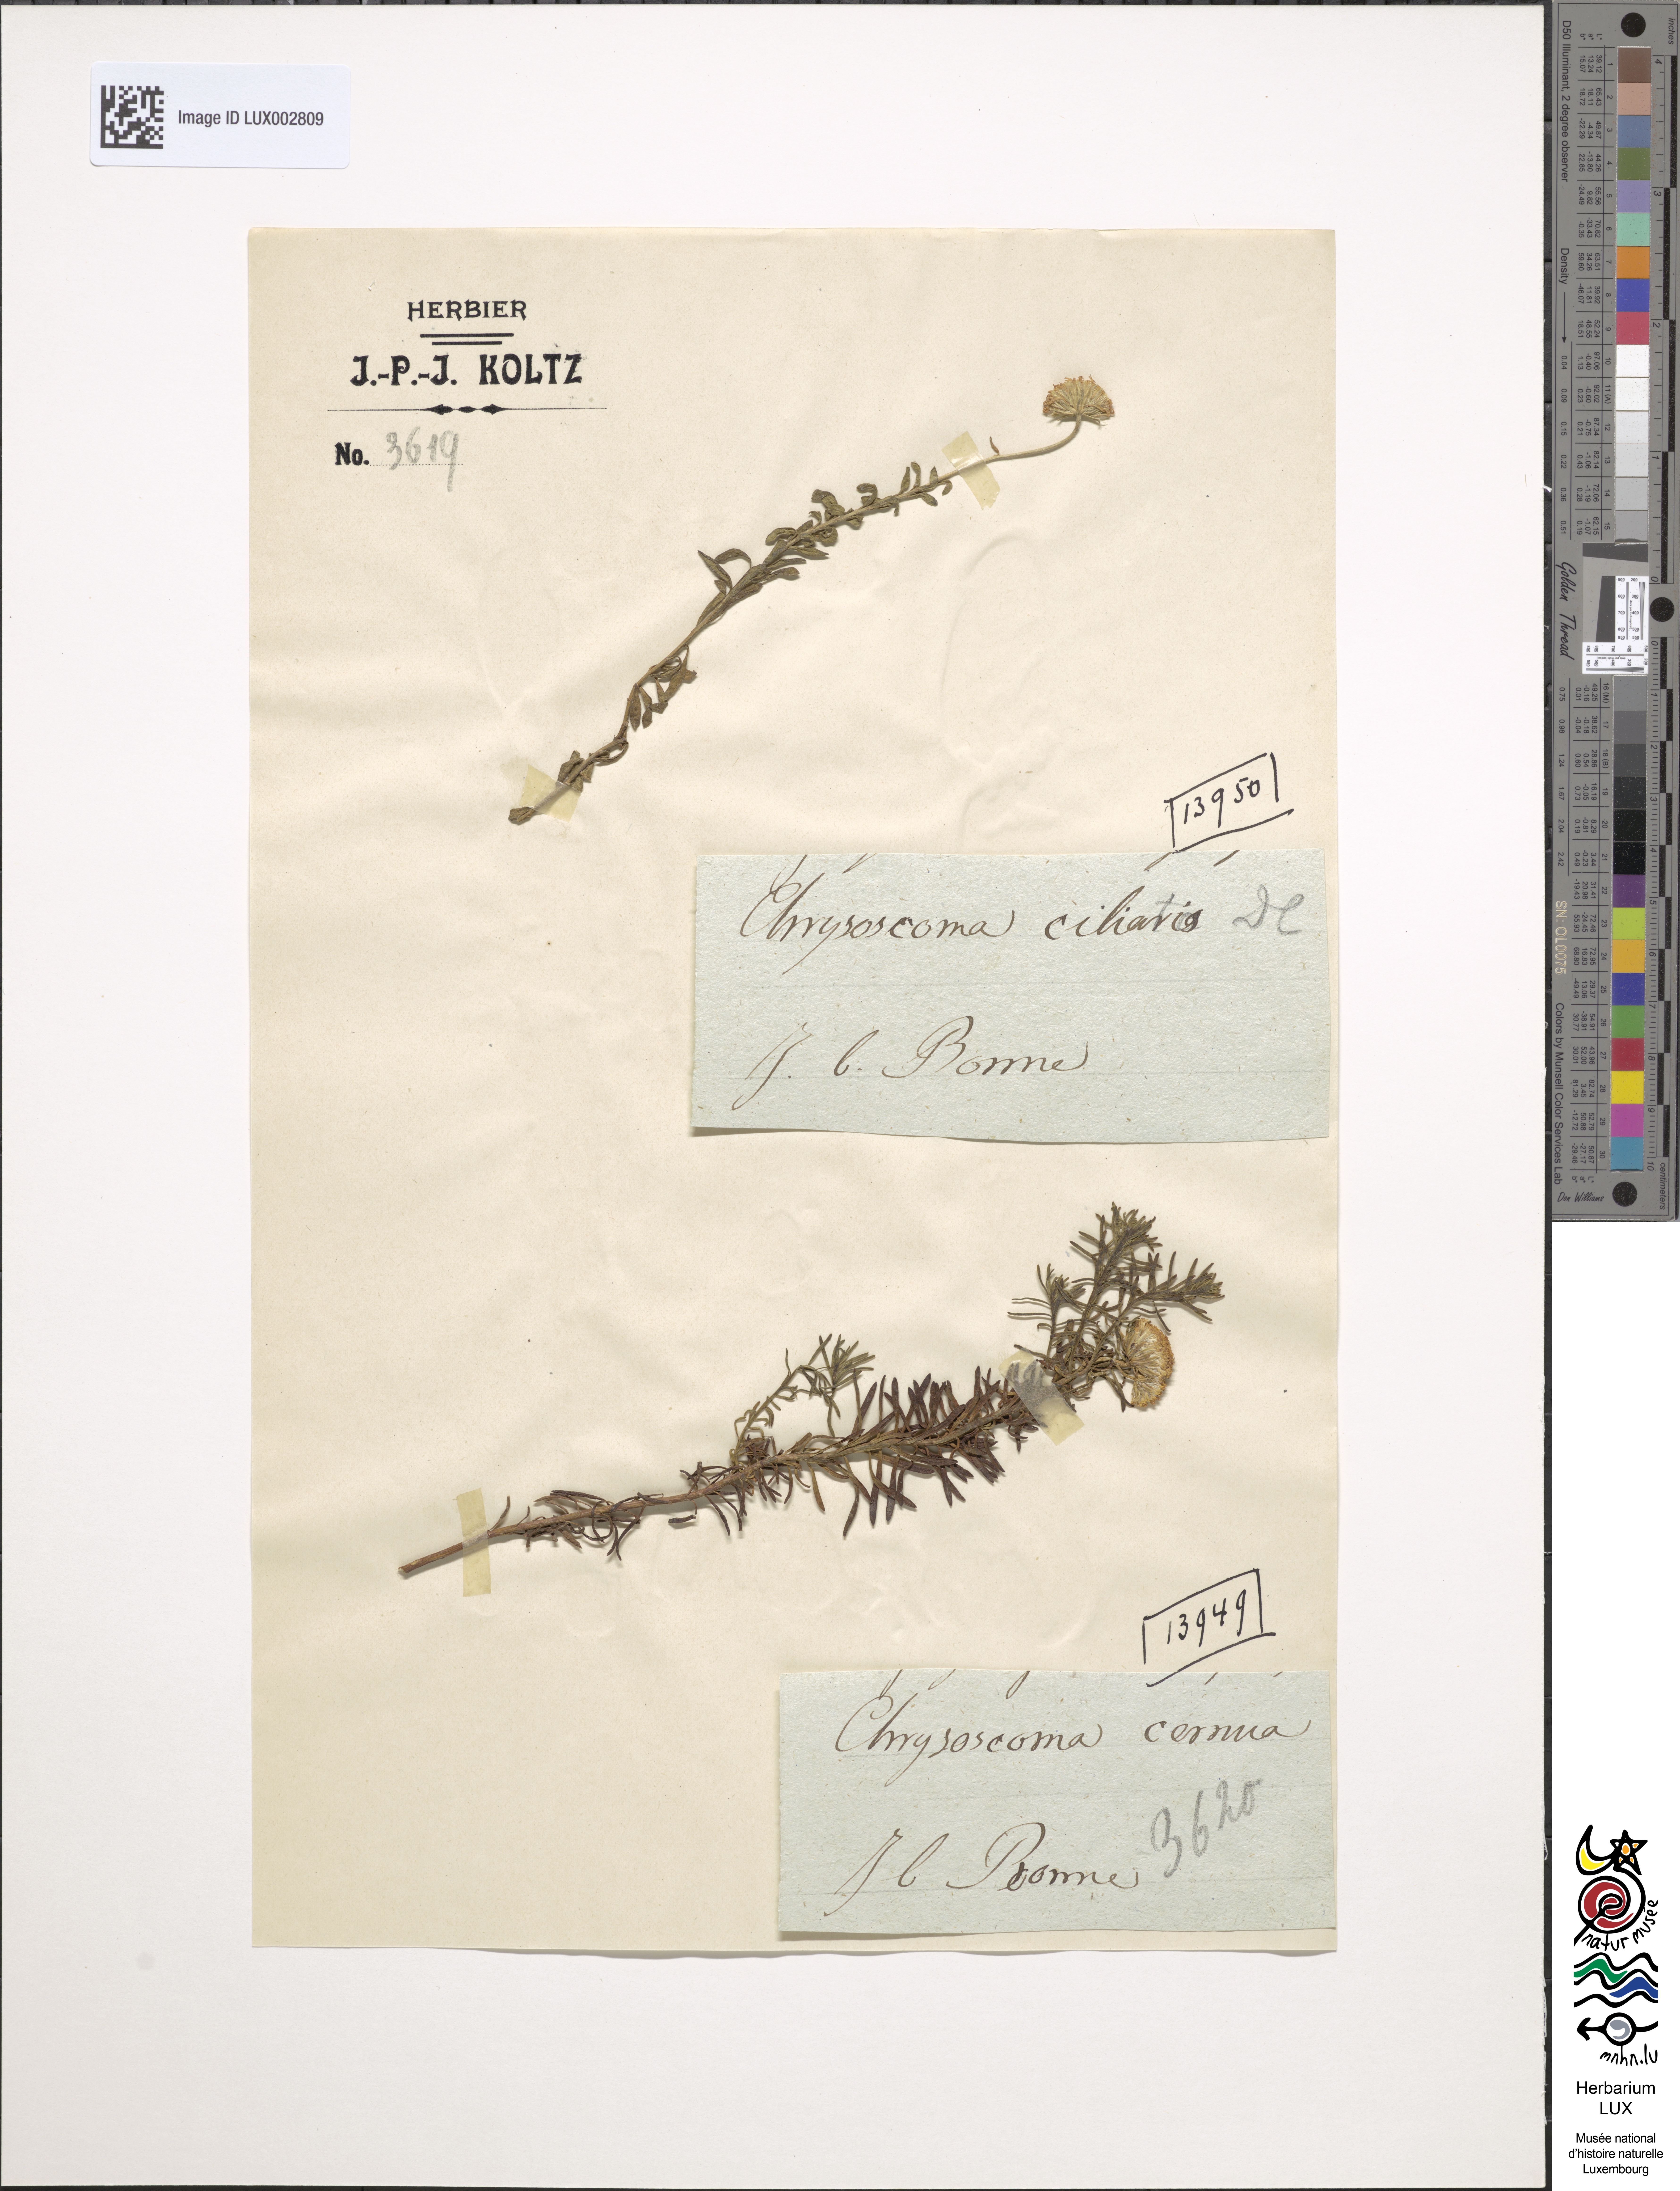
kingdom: Plantae
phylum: Tracheophyta
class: Magnoliopsida
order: Asterales
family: Asteraceae
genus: Chrysocoma
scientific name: Chrysocoma oblongifolia
